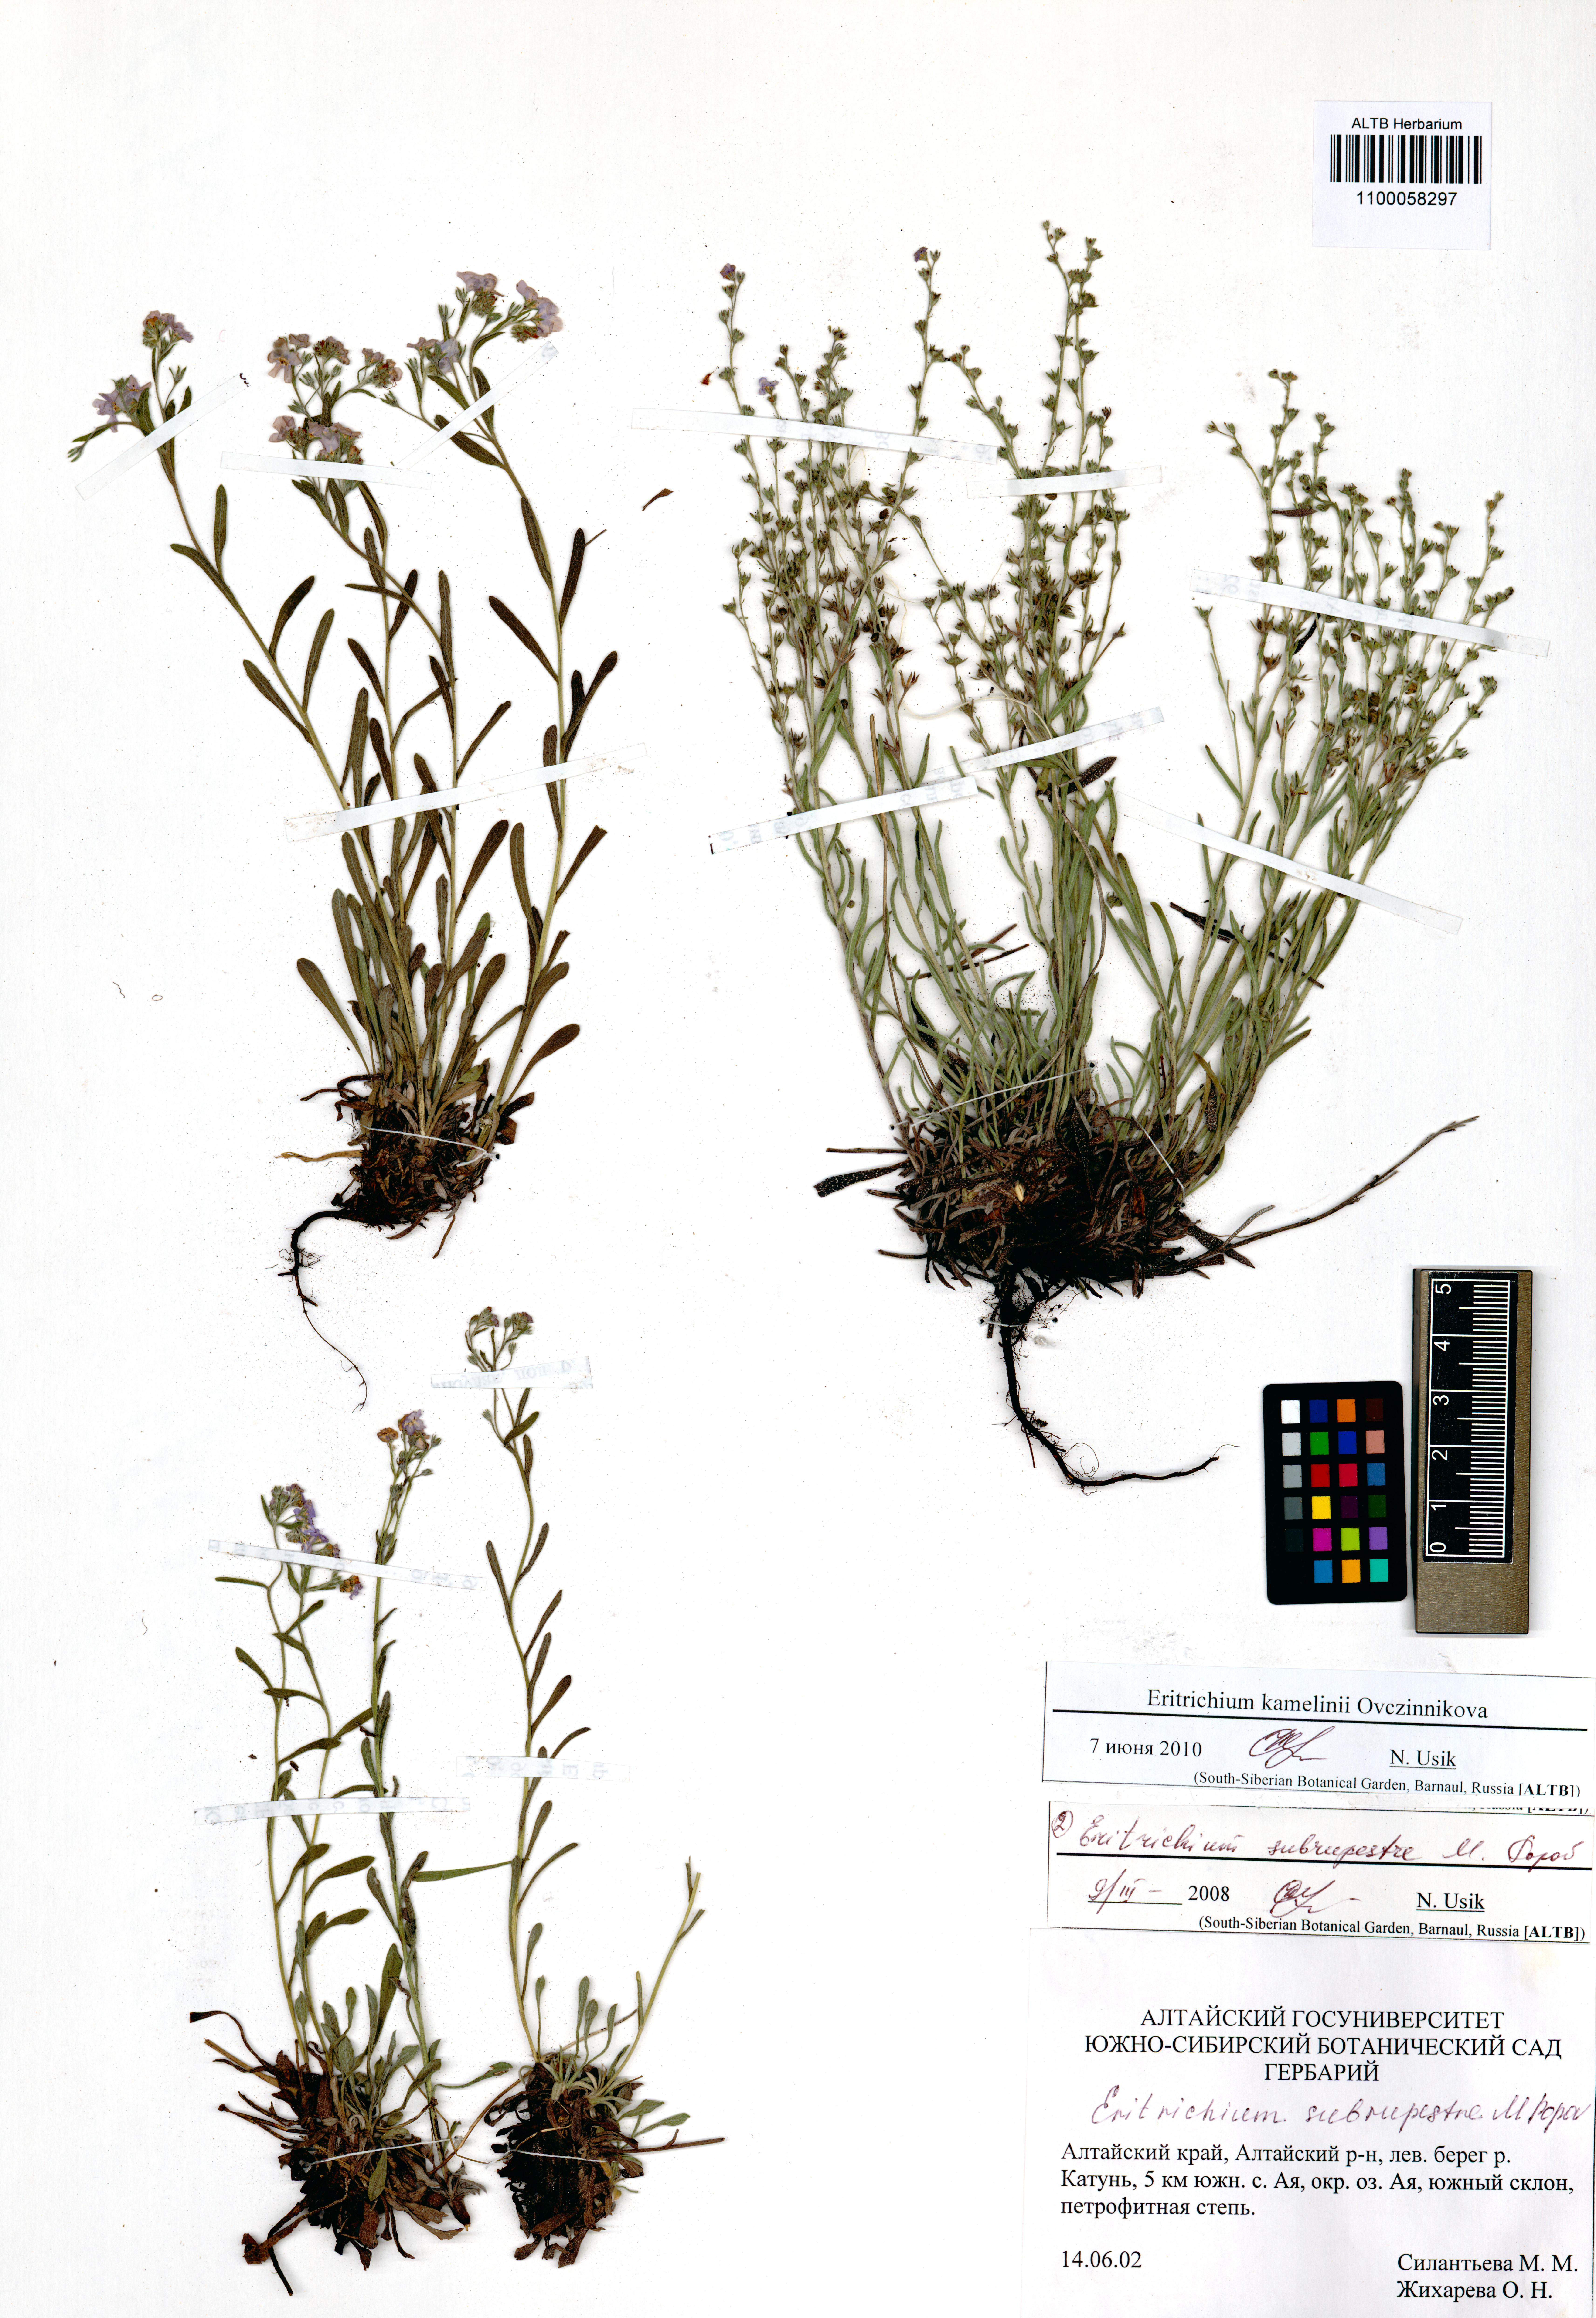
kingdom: Plantae
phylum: Tracheophyta
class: Magnoliopsida
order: Boraginales
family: Boraginaceae
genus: Eritrichium
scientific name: Eritrichium kamelinii
